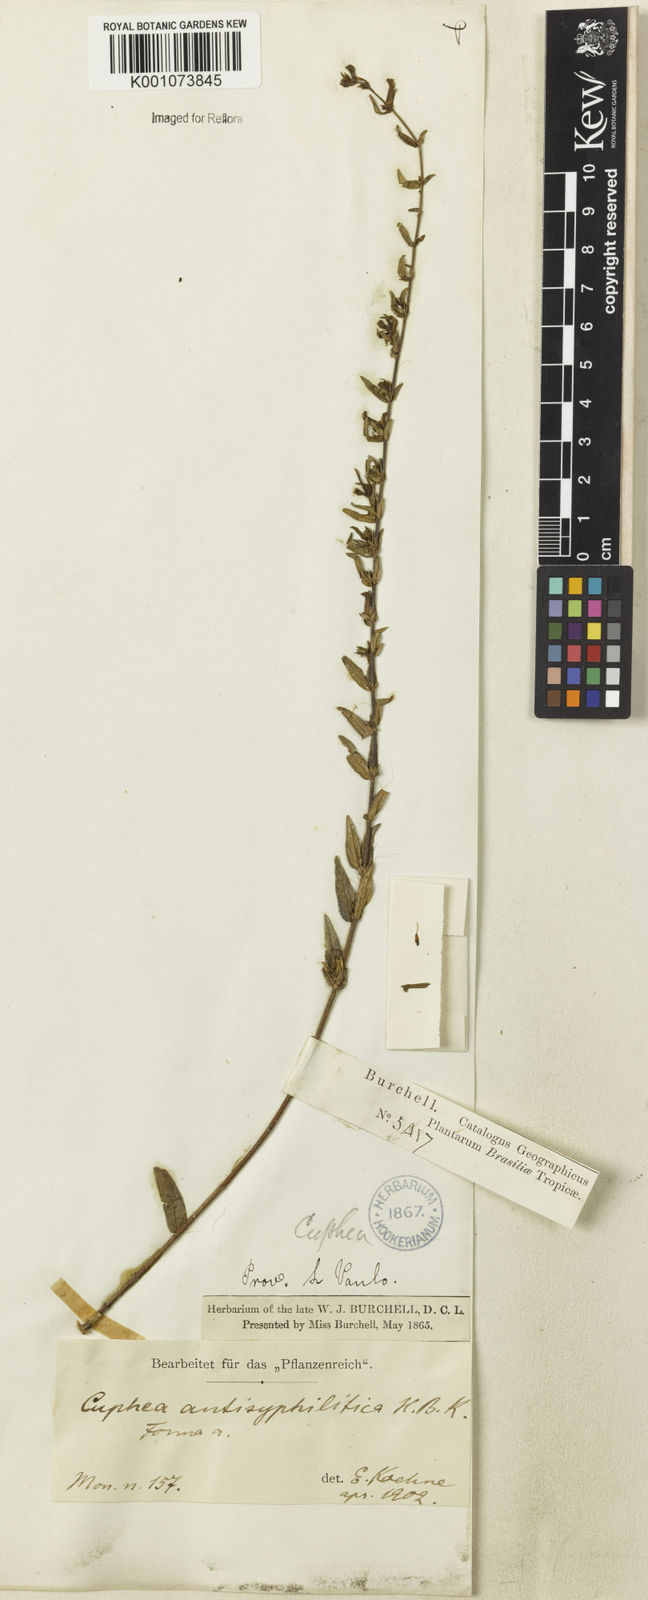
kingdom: Plantae
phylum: Tracheophyta
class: Magnoliopsida
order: Myrtales
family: Lythraceae
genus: Cuphea
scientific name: Cuphea antisyphilitica
